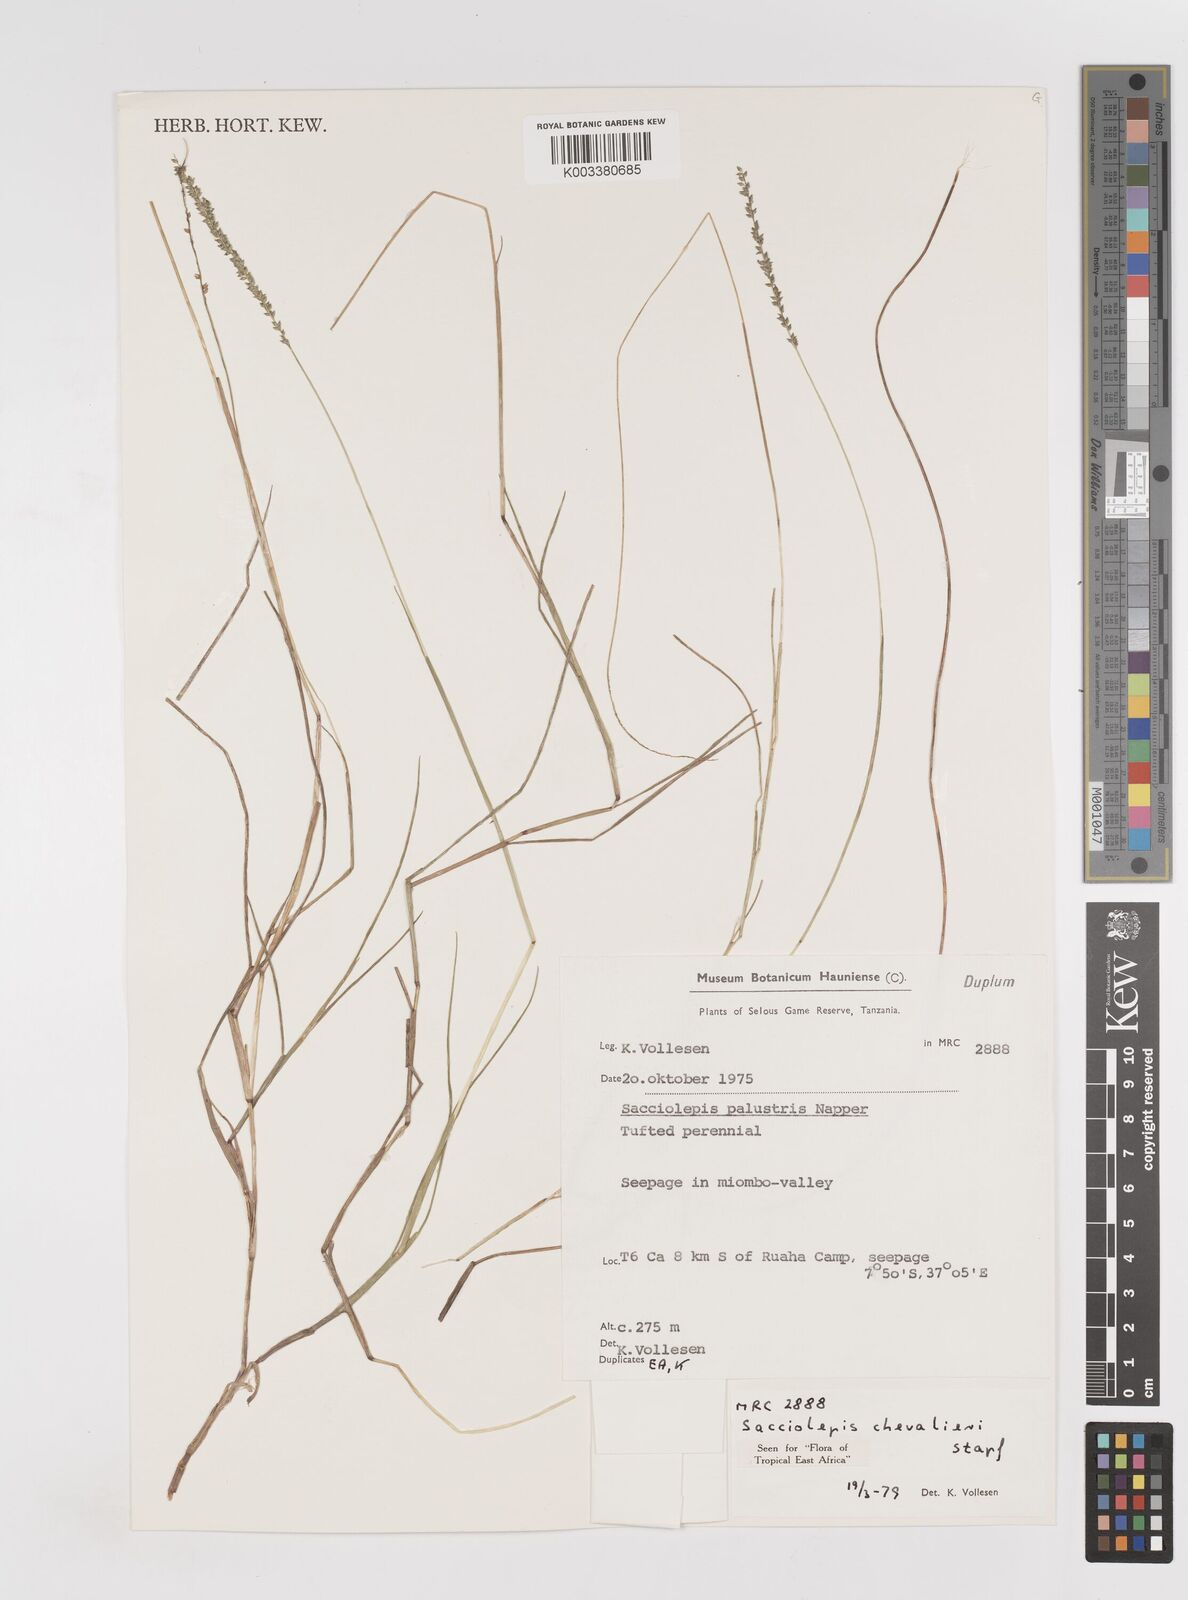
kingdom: Plantae
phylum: Tracheophyta
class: Liliopsida
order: Poales
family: Poaceae
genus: Sacciolepis
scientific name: Sacciolepis chevalieri
